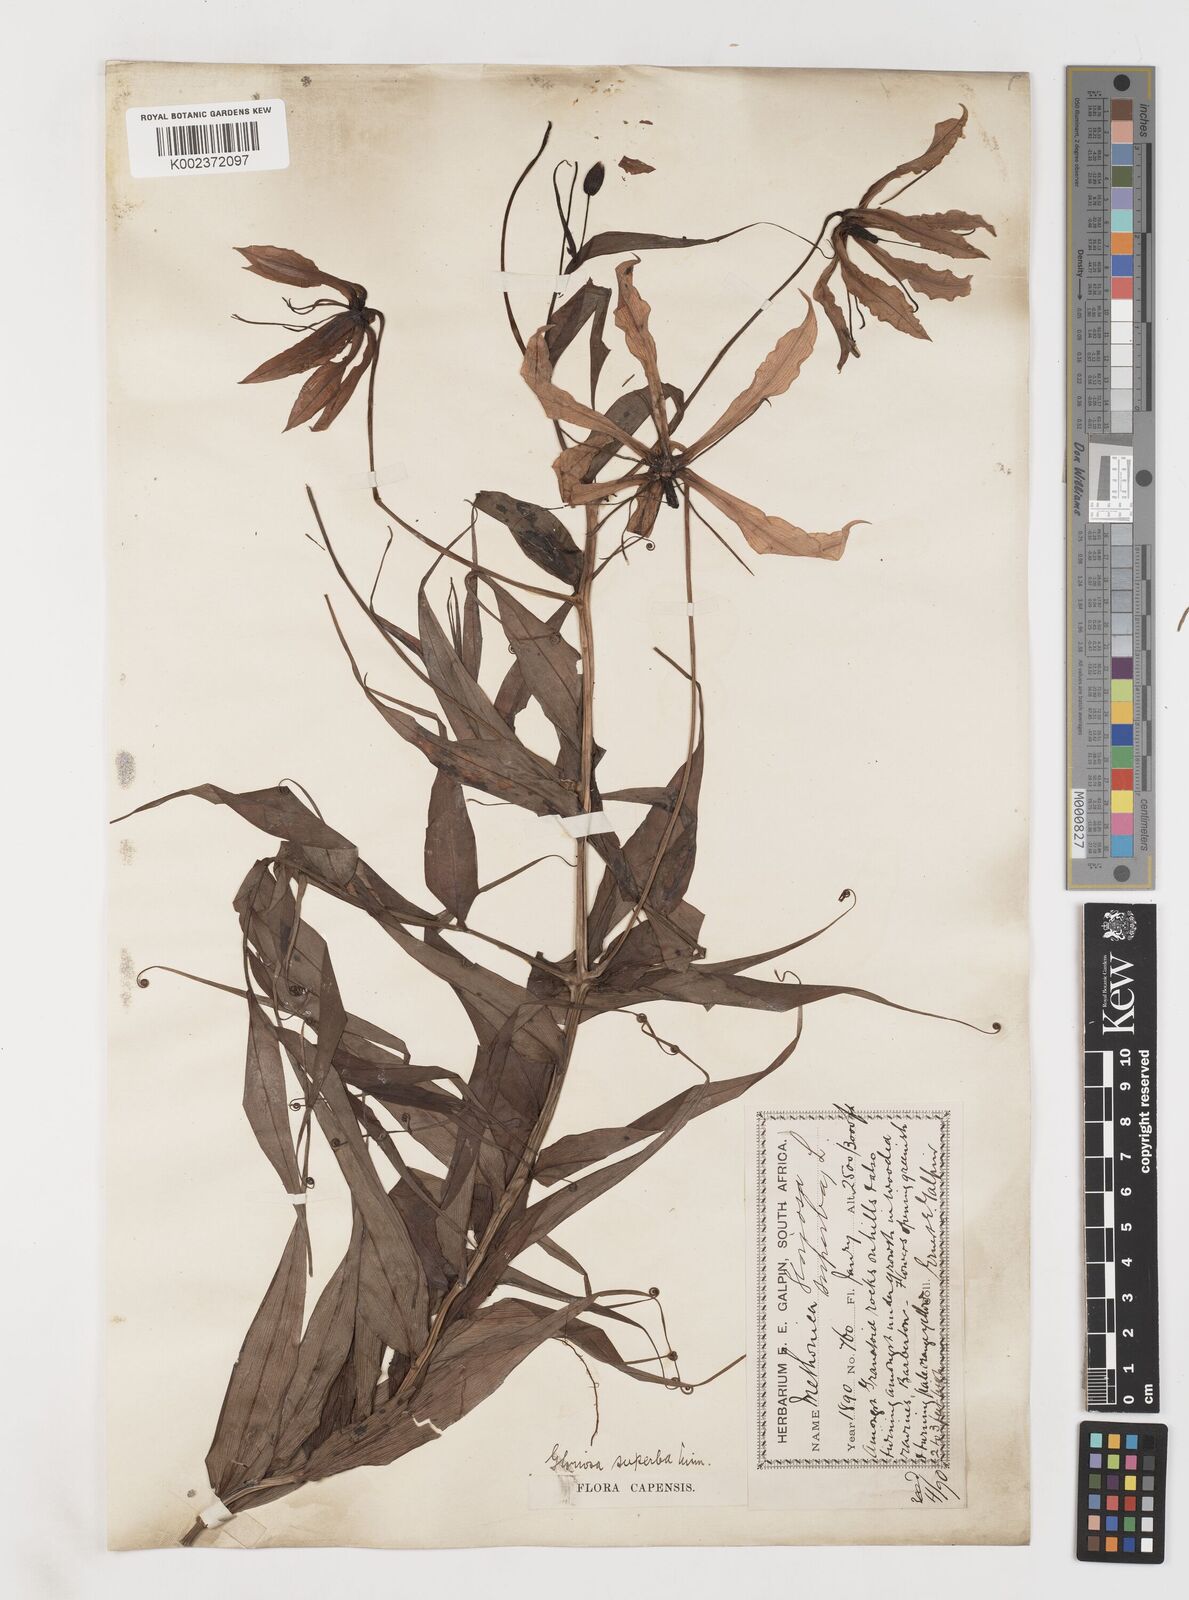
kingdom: Plantae
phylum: Tracheophyta
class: Liliopsida
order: Liliales
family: Colchicaceae
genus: Gloriosa
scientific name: Gloriosa superba
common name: Flame lily
